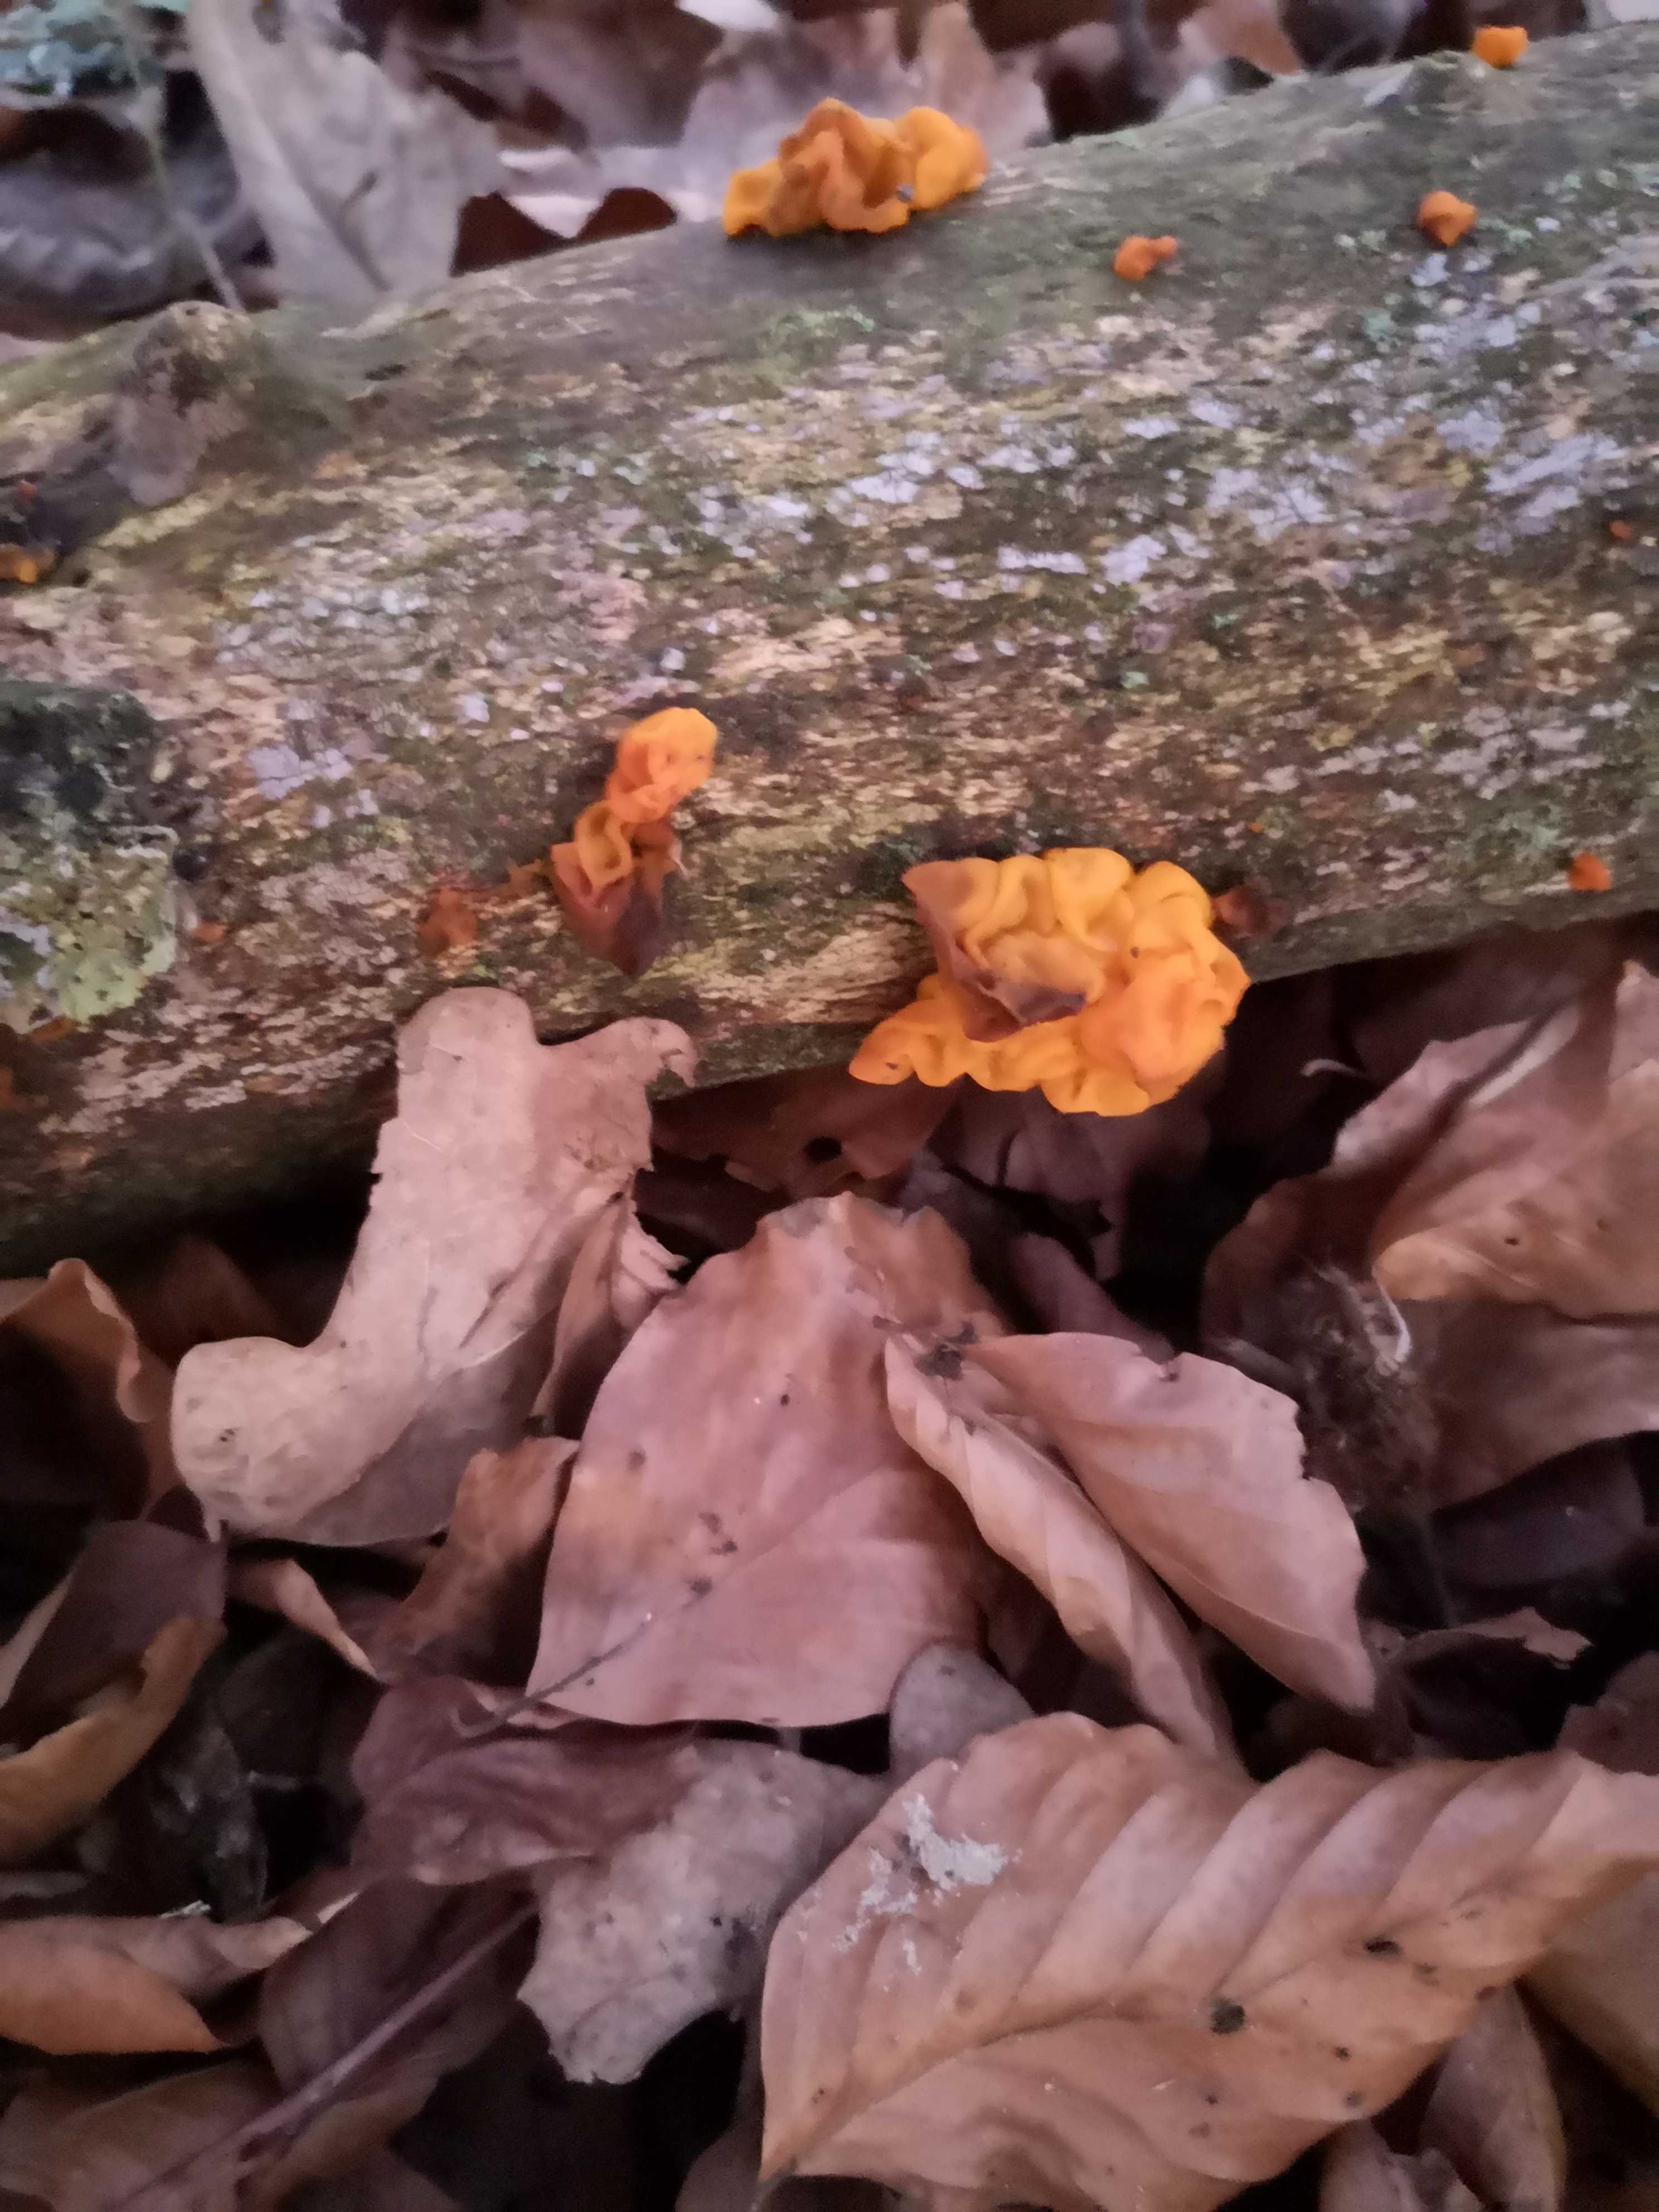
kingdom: Fungi
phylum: Basidiomycota
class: Tremellomycetes
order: Tremellales
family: Tremellaceae
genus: Tremella
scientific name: Tremella mesenterica
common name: gul bævresvamp
